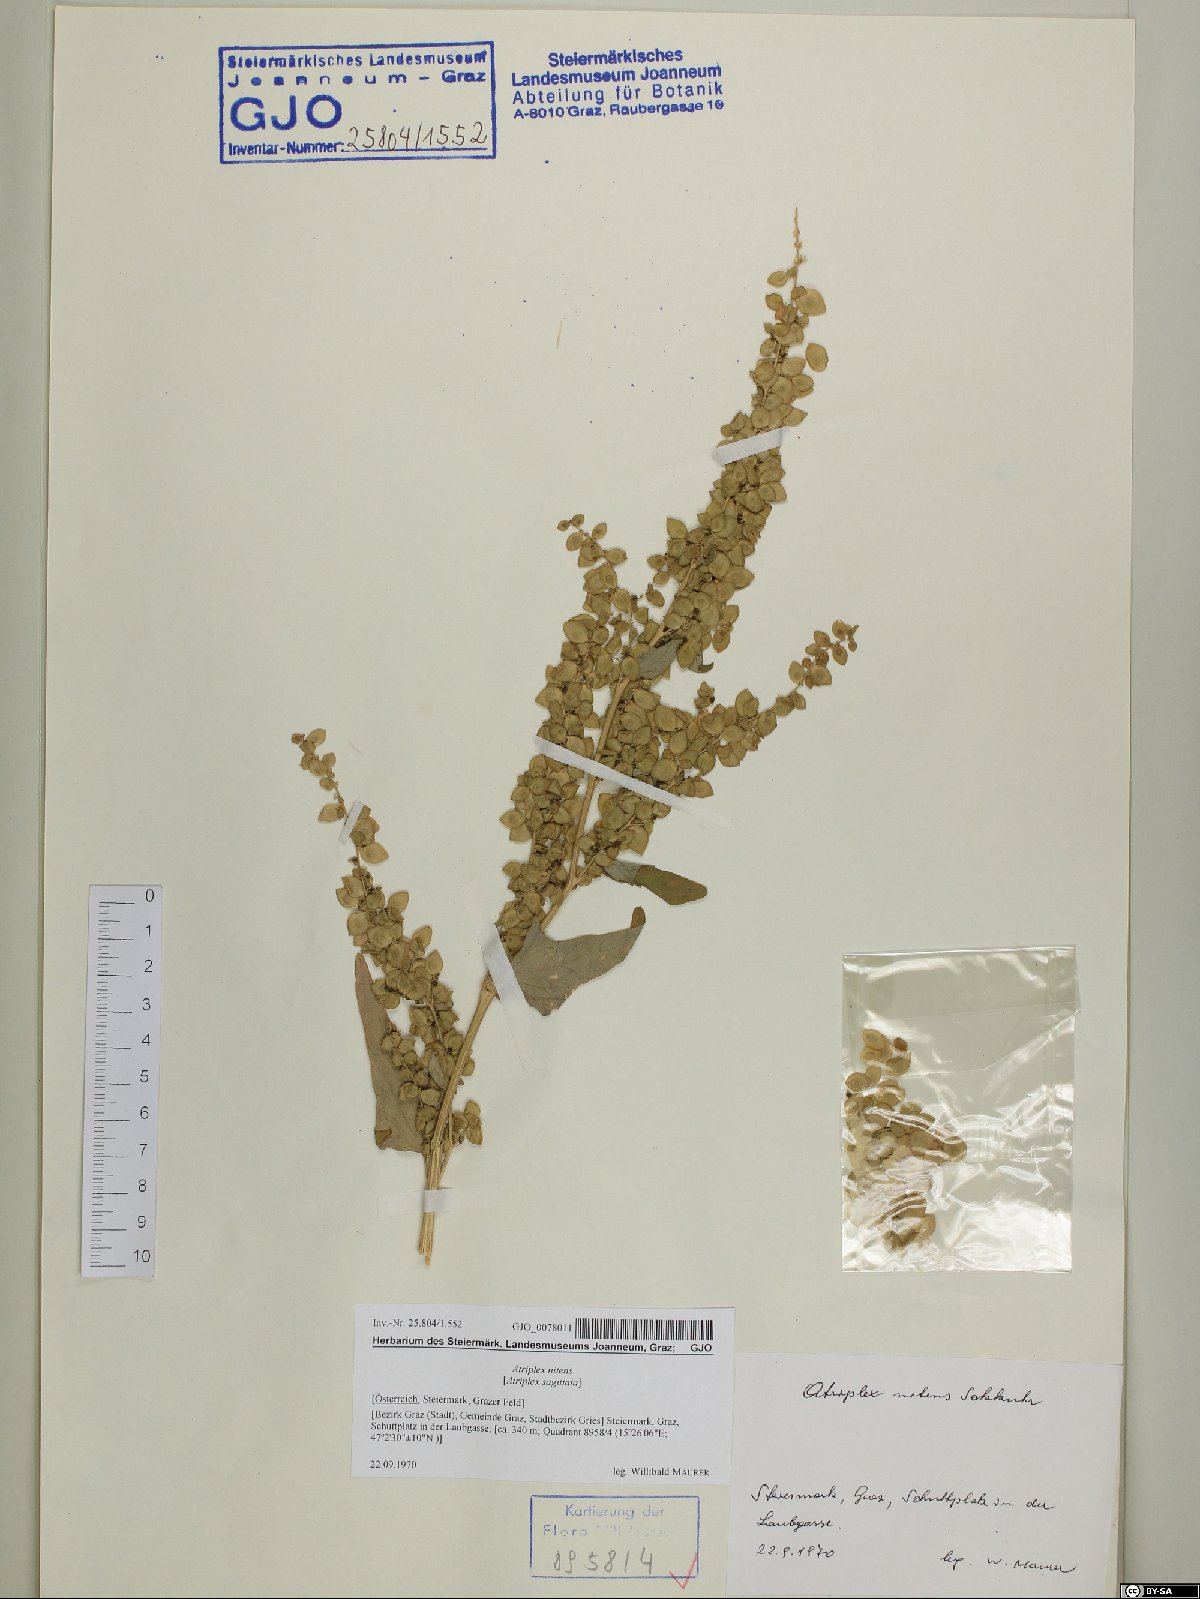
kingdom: Plantae
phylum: Tracheophyta
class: Magnoliopsida
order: Caryophyllales
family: Amaranthaceae
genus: Atriplex
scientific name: Atriplex sagittata
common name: Purple orache
